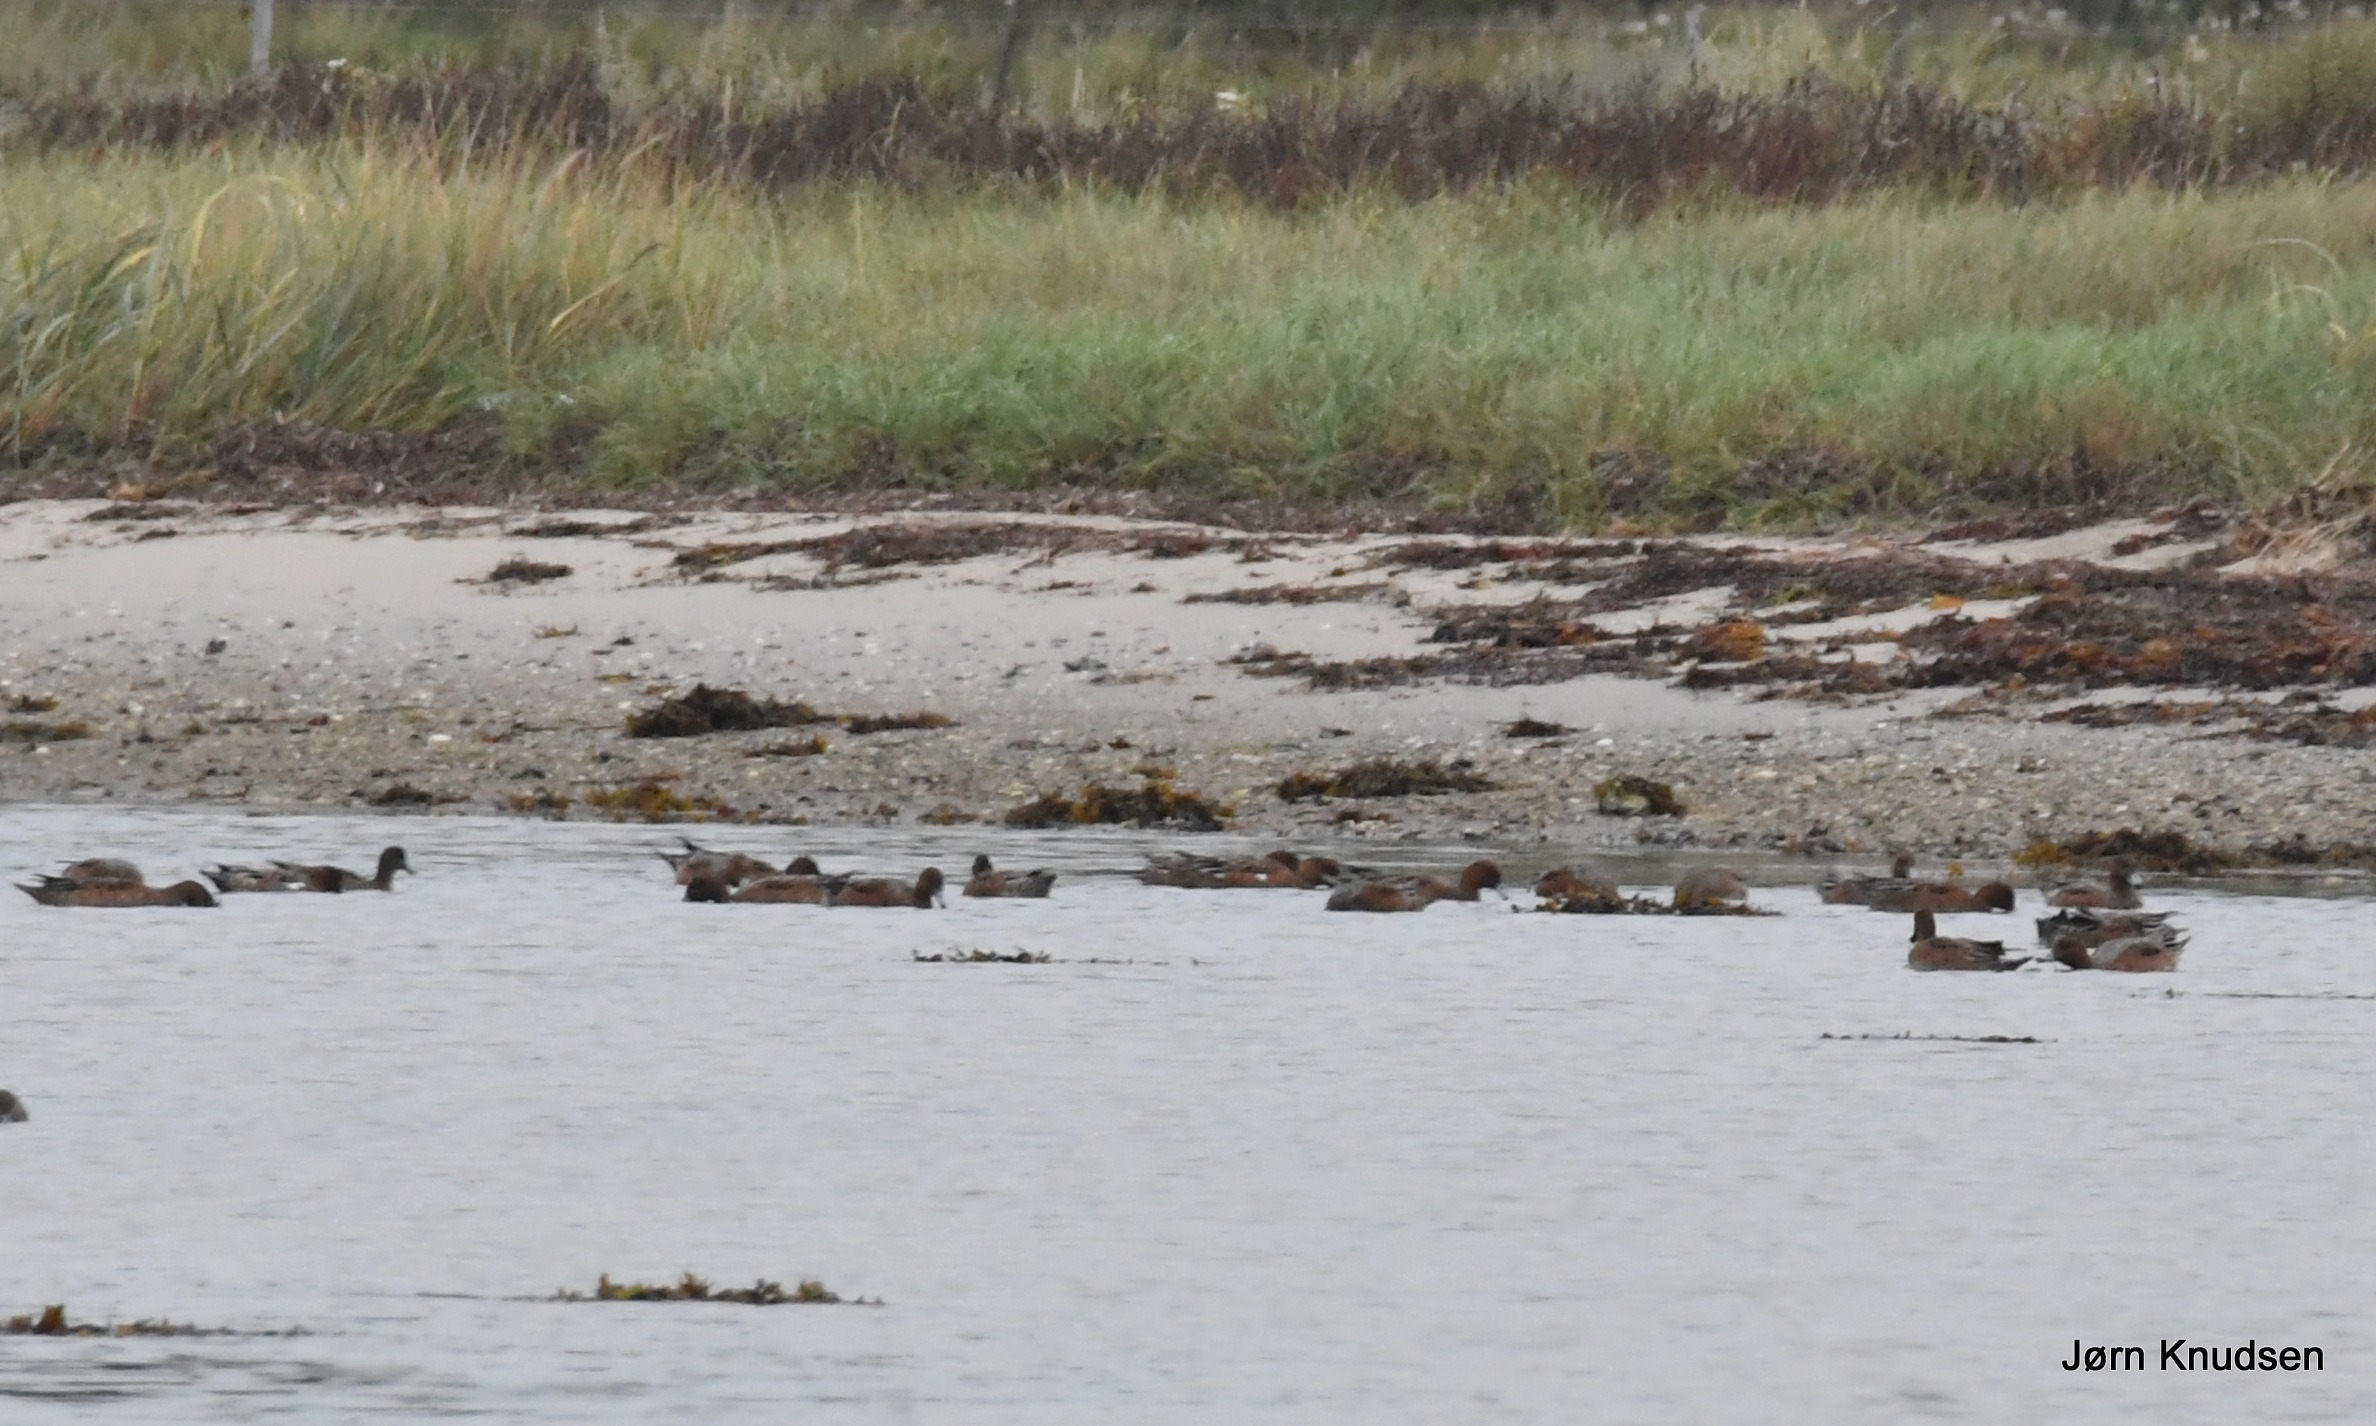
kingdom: Animalia
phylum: Chordata
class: Aves
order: Anseriformes
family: Anatidae
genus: Mareca
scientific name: Mareca penelope
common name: Pibeand
